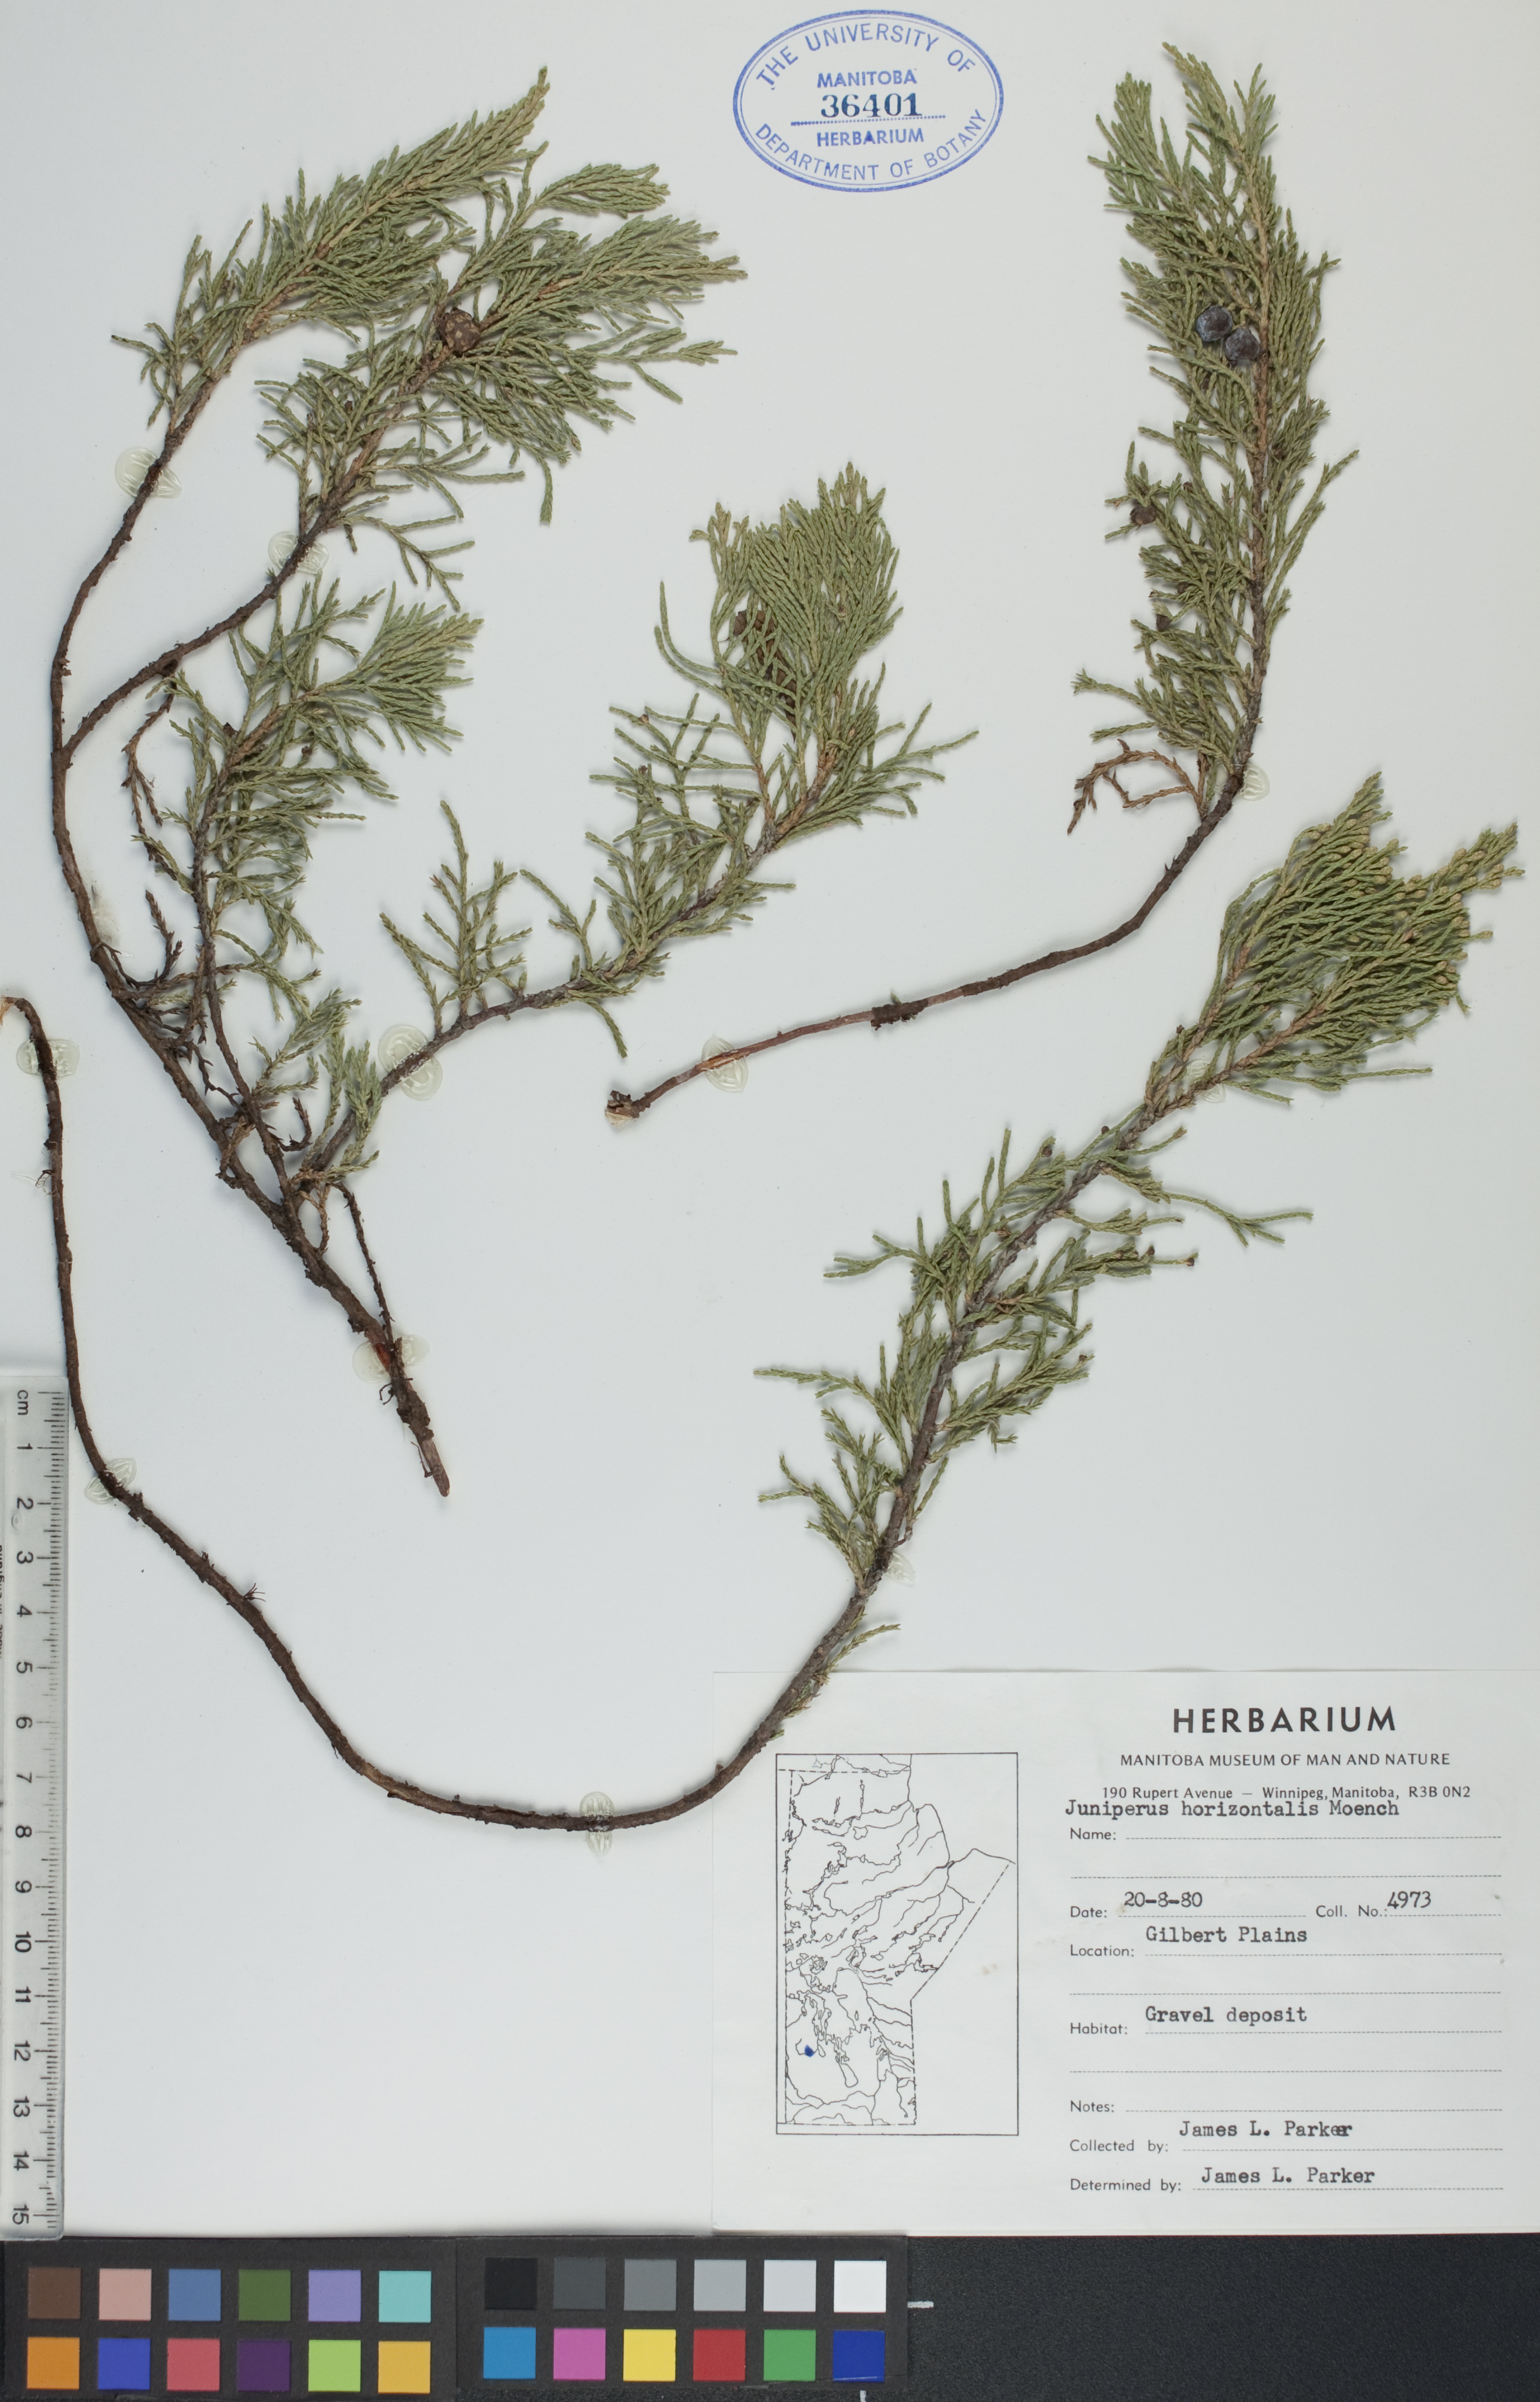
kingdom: Plantae
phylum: Tracheophyta
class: Pinopsida
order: Pinales
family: Cupressaceae
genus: Juniperus
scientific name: Juniperus horizontalis
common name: Creeping juniper
